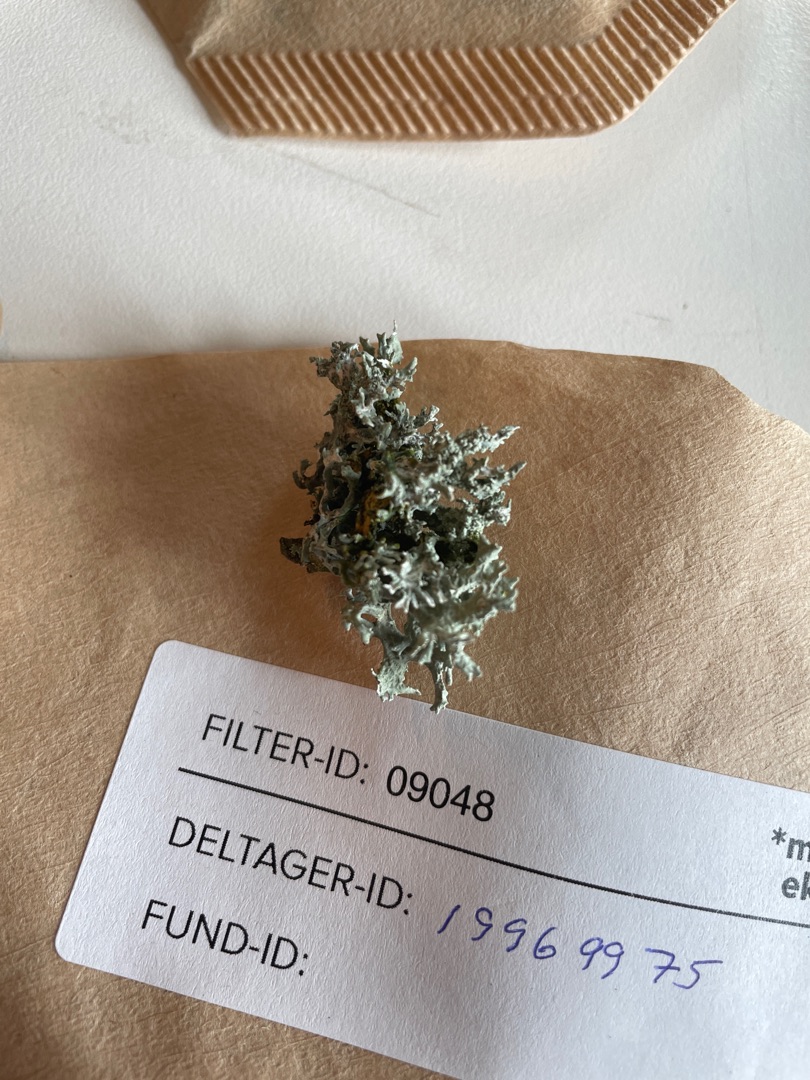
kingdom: Fungi
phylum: Ascomycota
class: Lecanoromycetes
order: Lecanorales
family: Parmeliaceae
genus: Evernia
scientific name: Evernia prunastri
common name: Almindelig slåenlav
